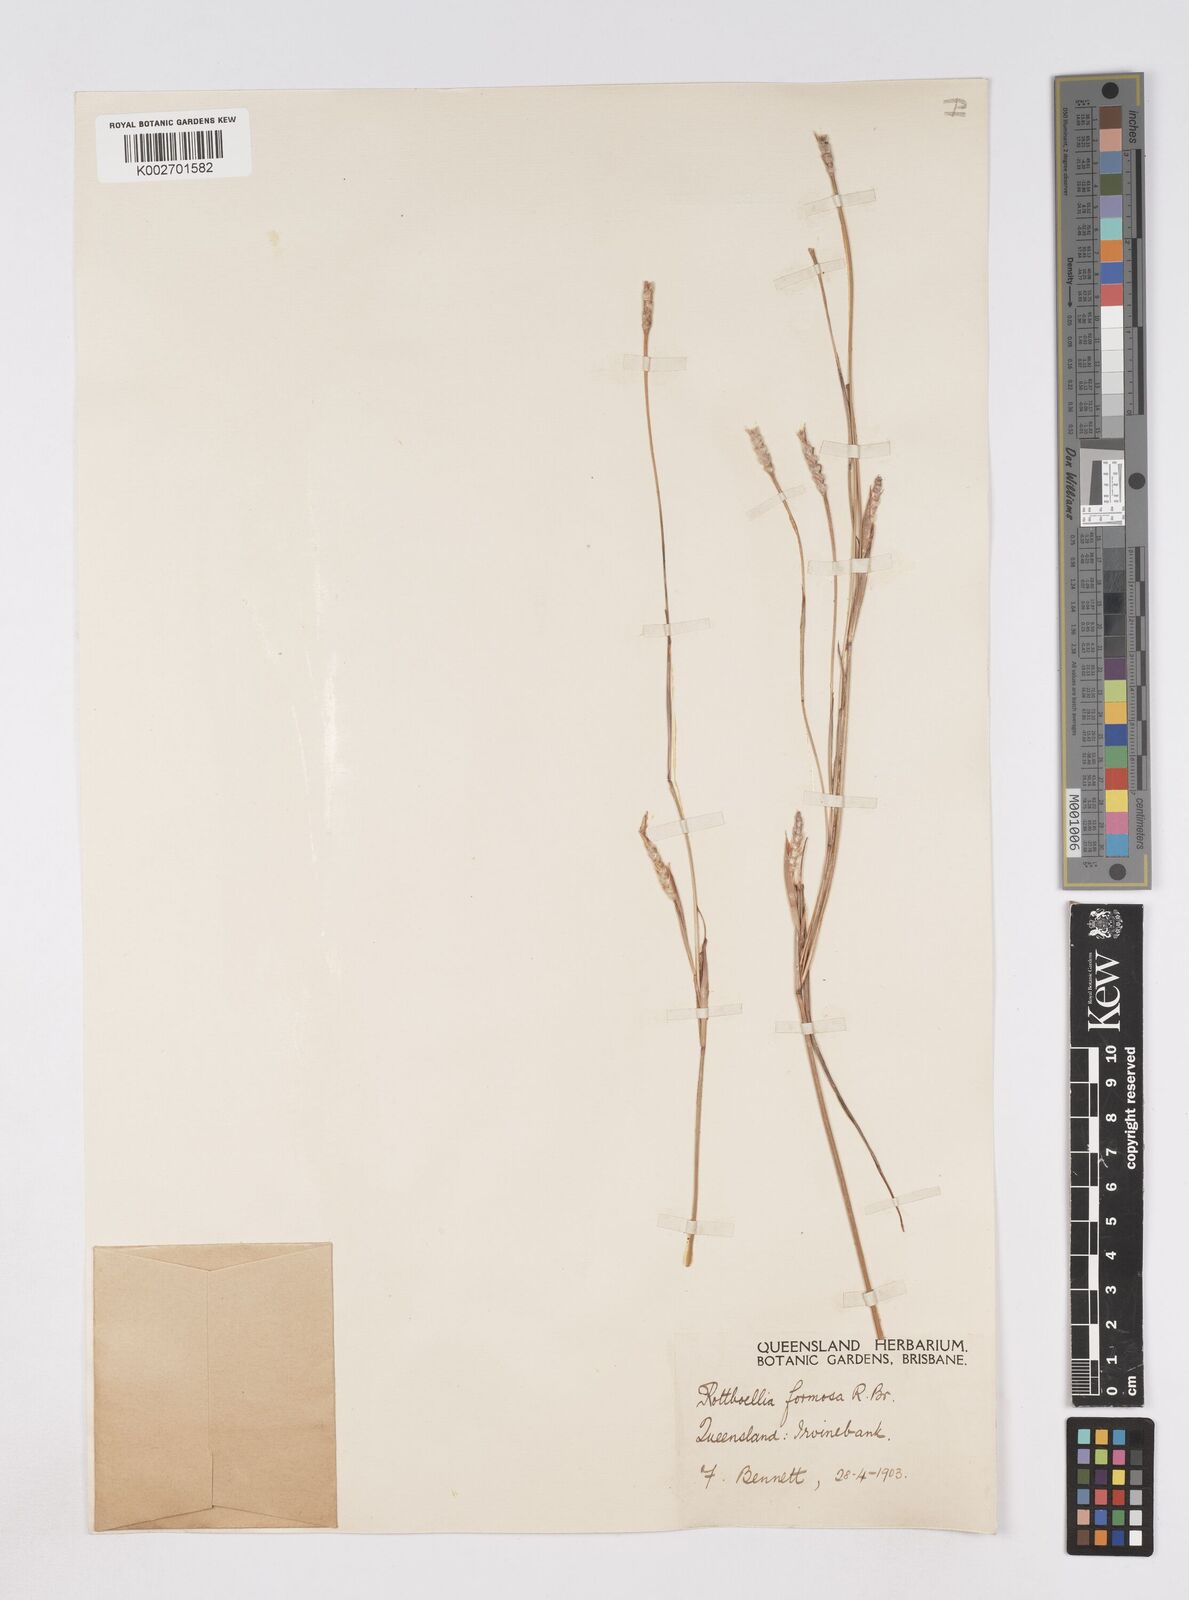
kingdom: Plantae
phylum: Tracheophyta
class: Liliopsida
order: Poales
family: Poaceae
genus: Heteropholis
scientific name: Heteropholis
